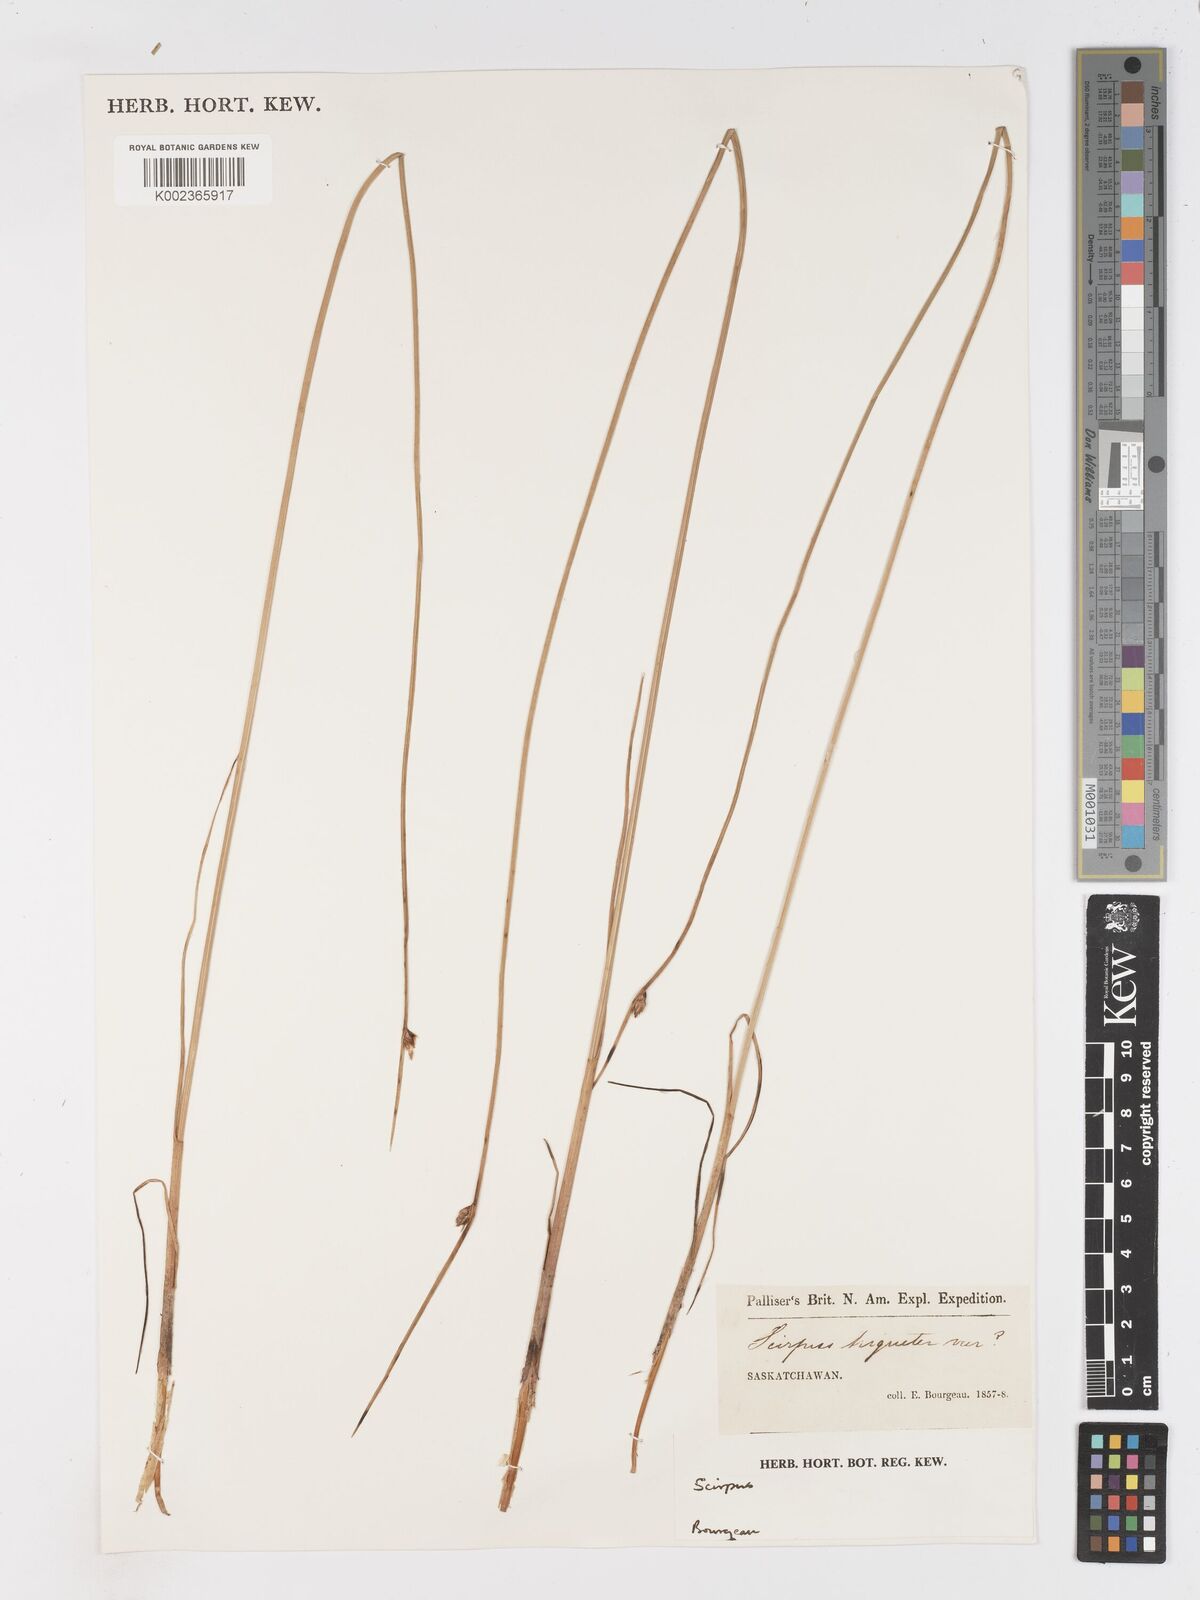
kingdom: Plantae
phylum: Tracheophyta
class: Liliopsida
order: Poales
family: Cyperaceae
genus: Schoenoplectus
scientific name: Schoenoplectus subterminalis
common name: Swaying bulrush
